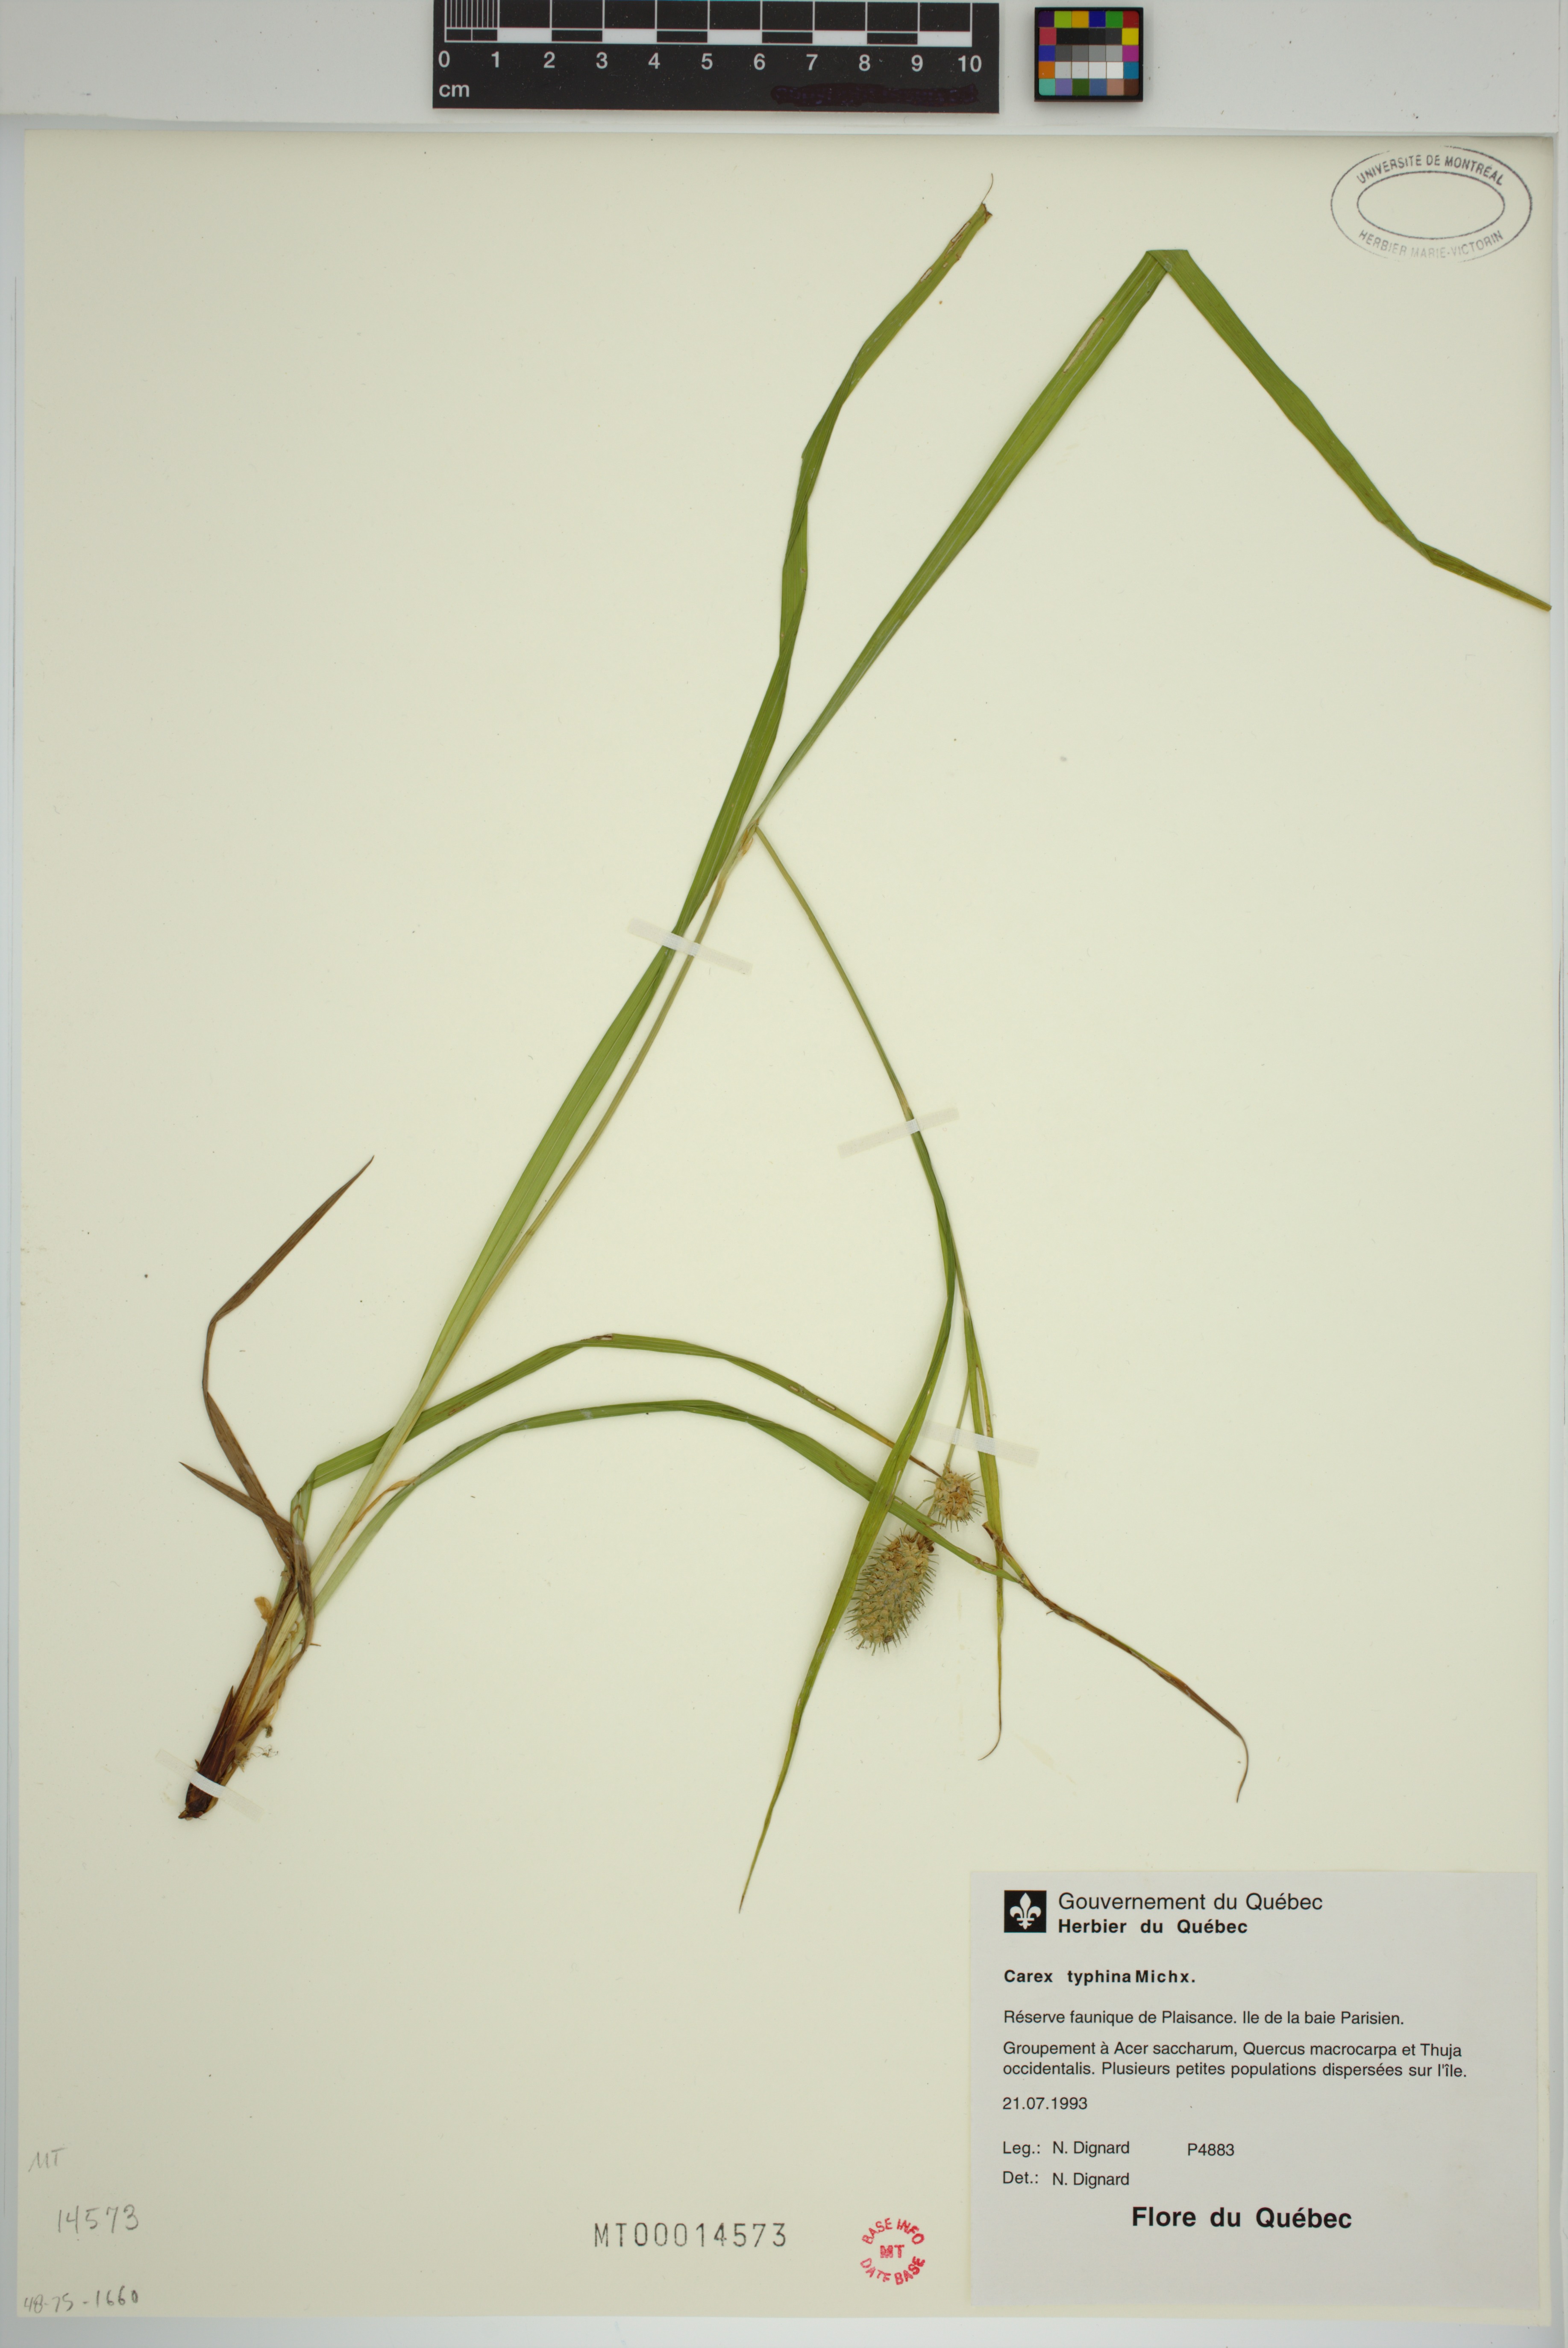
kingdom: Plantae
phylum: Tracheophyta
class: Liliopsida
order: Poales
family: Cyperaceae
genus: Carex
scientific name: Carex typhina
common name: Cattail sedge
